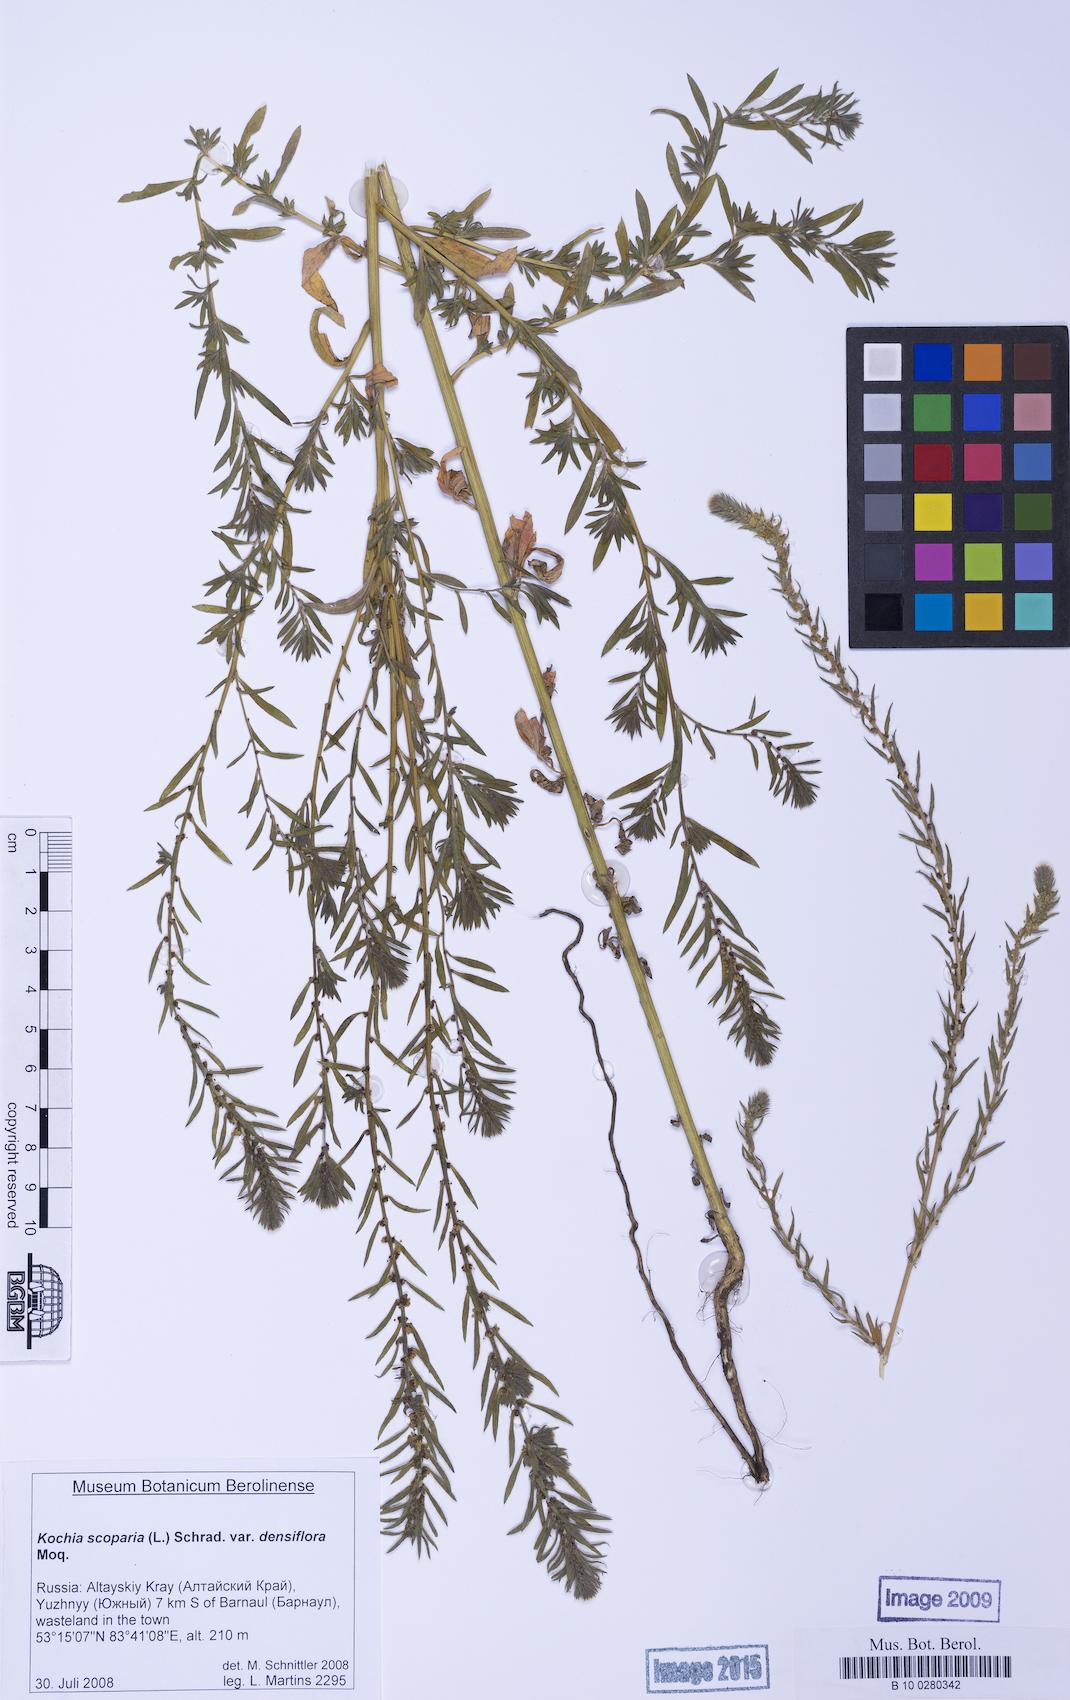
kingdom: Plantae
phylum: Tracheophyta
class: Magnoliopsida
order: Caryophyllales
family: Amaranthaceae
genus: Bassia
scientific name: Bassia scoparia
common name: Belvedere
